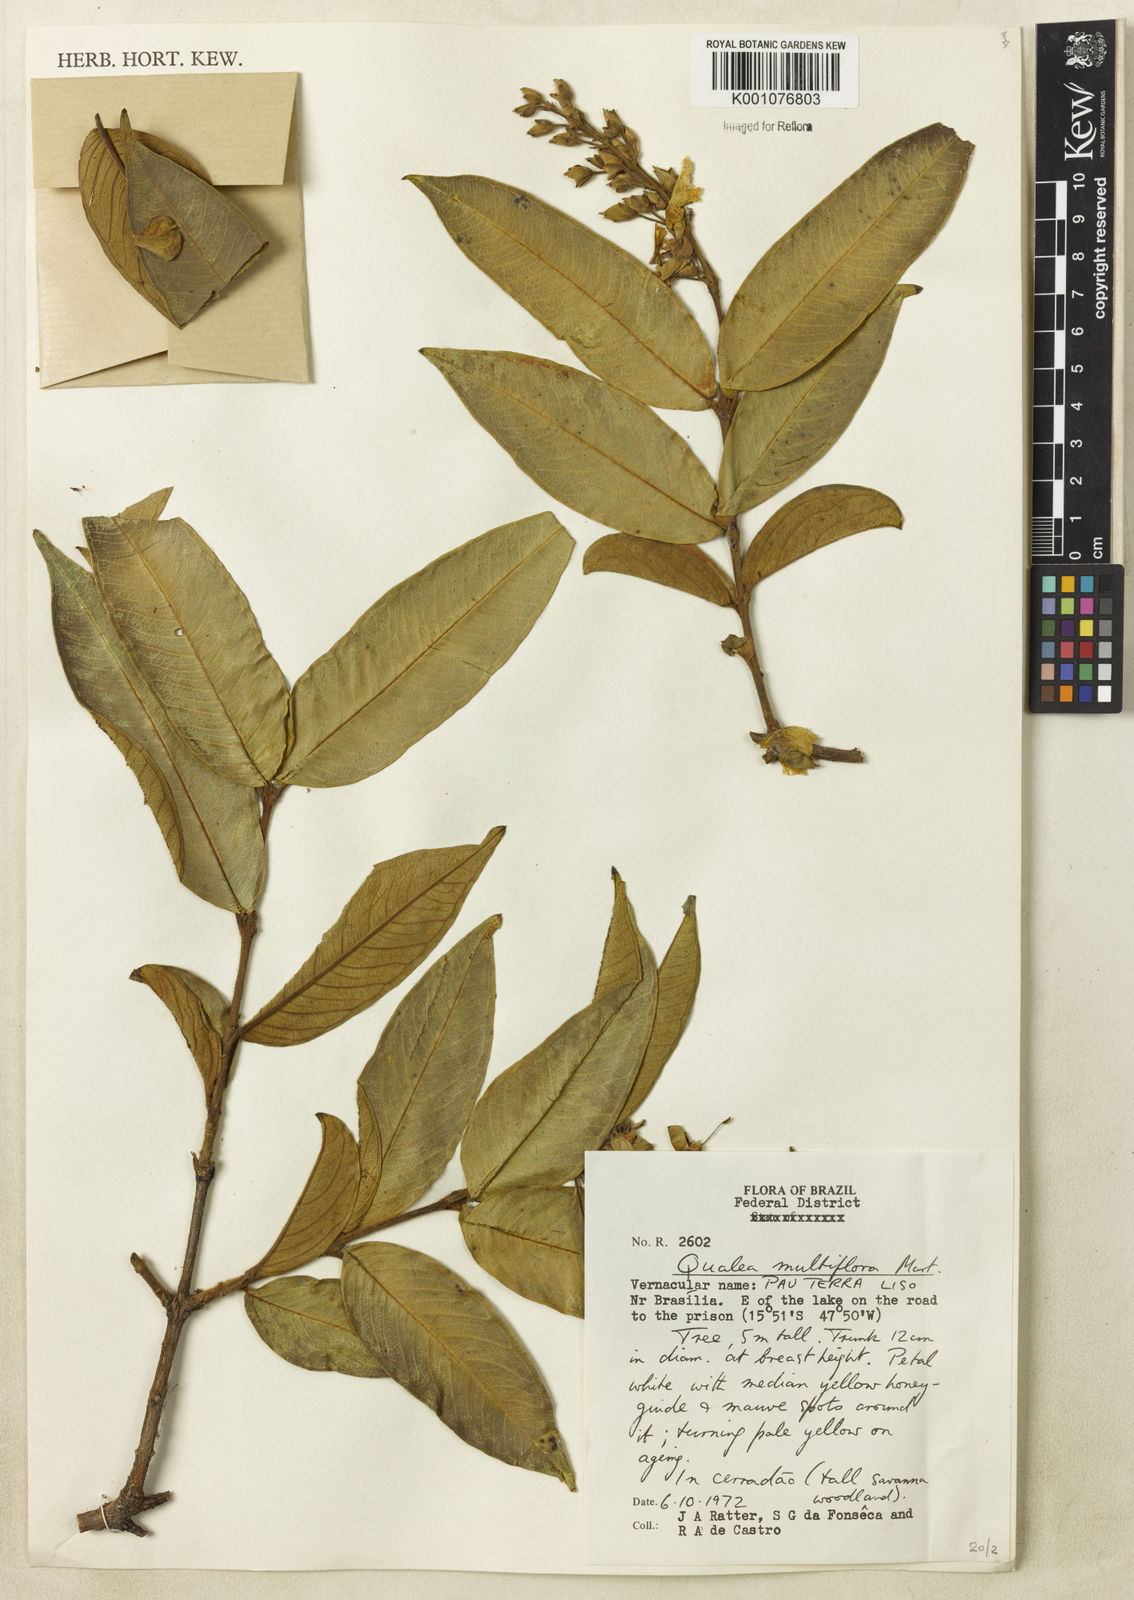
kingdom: Plantae
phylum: Tracheophyta
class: Magnoliopsida
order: Myrtales
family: Vochysiaceae
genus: Qualea
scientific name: Qualea multiflora
